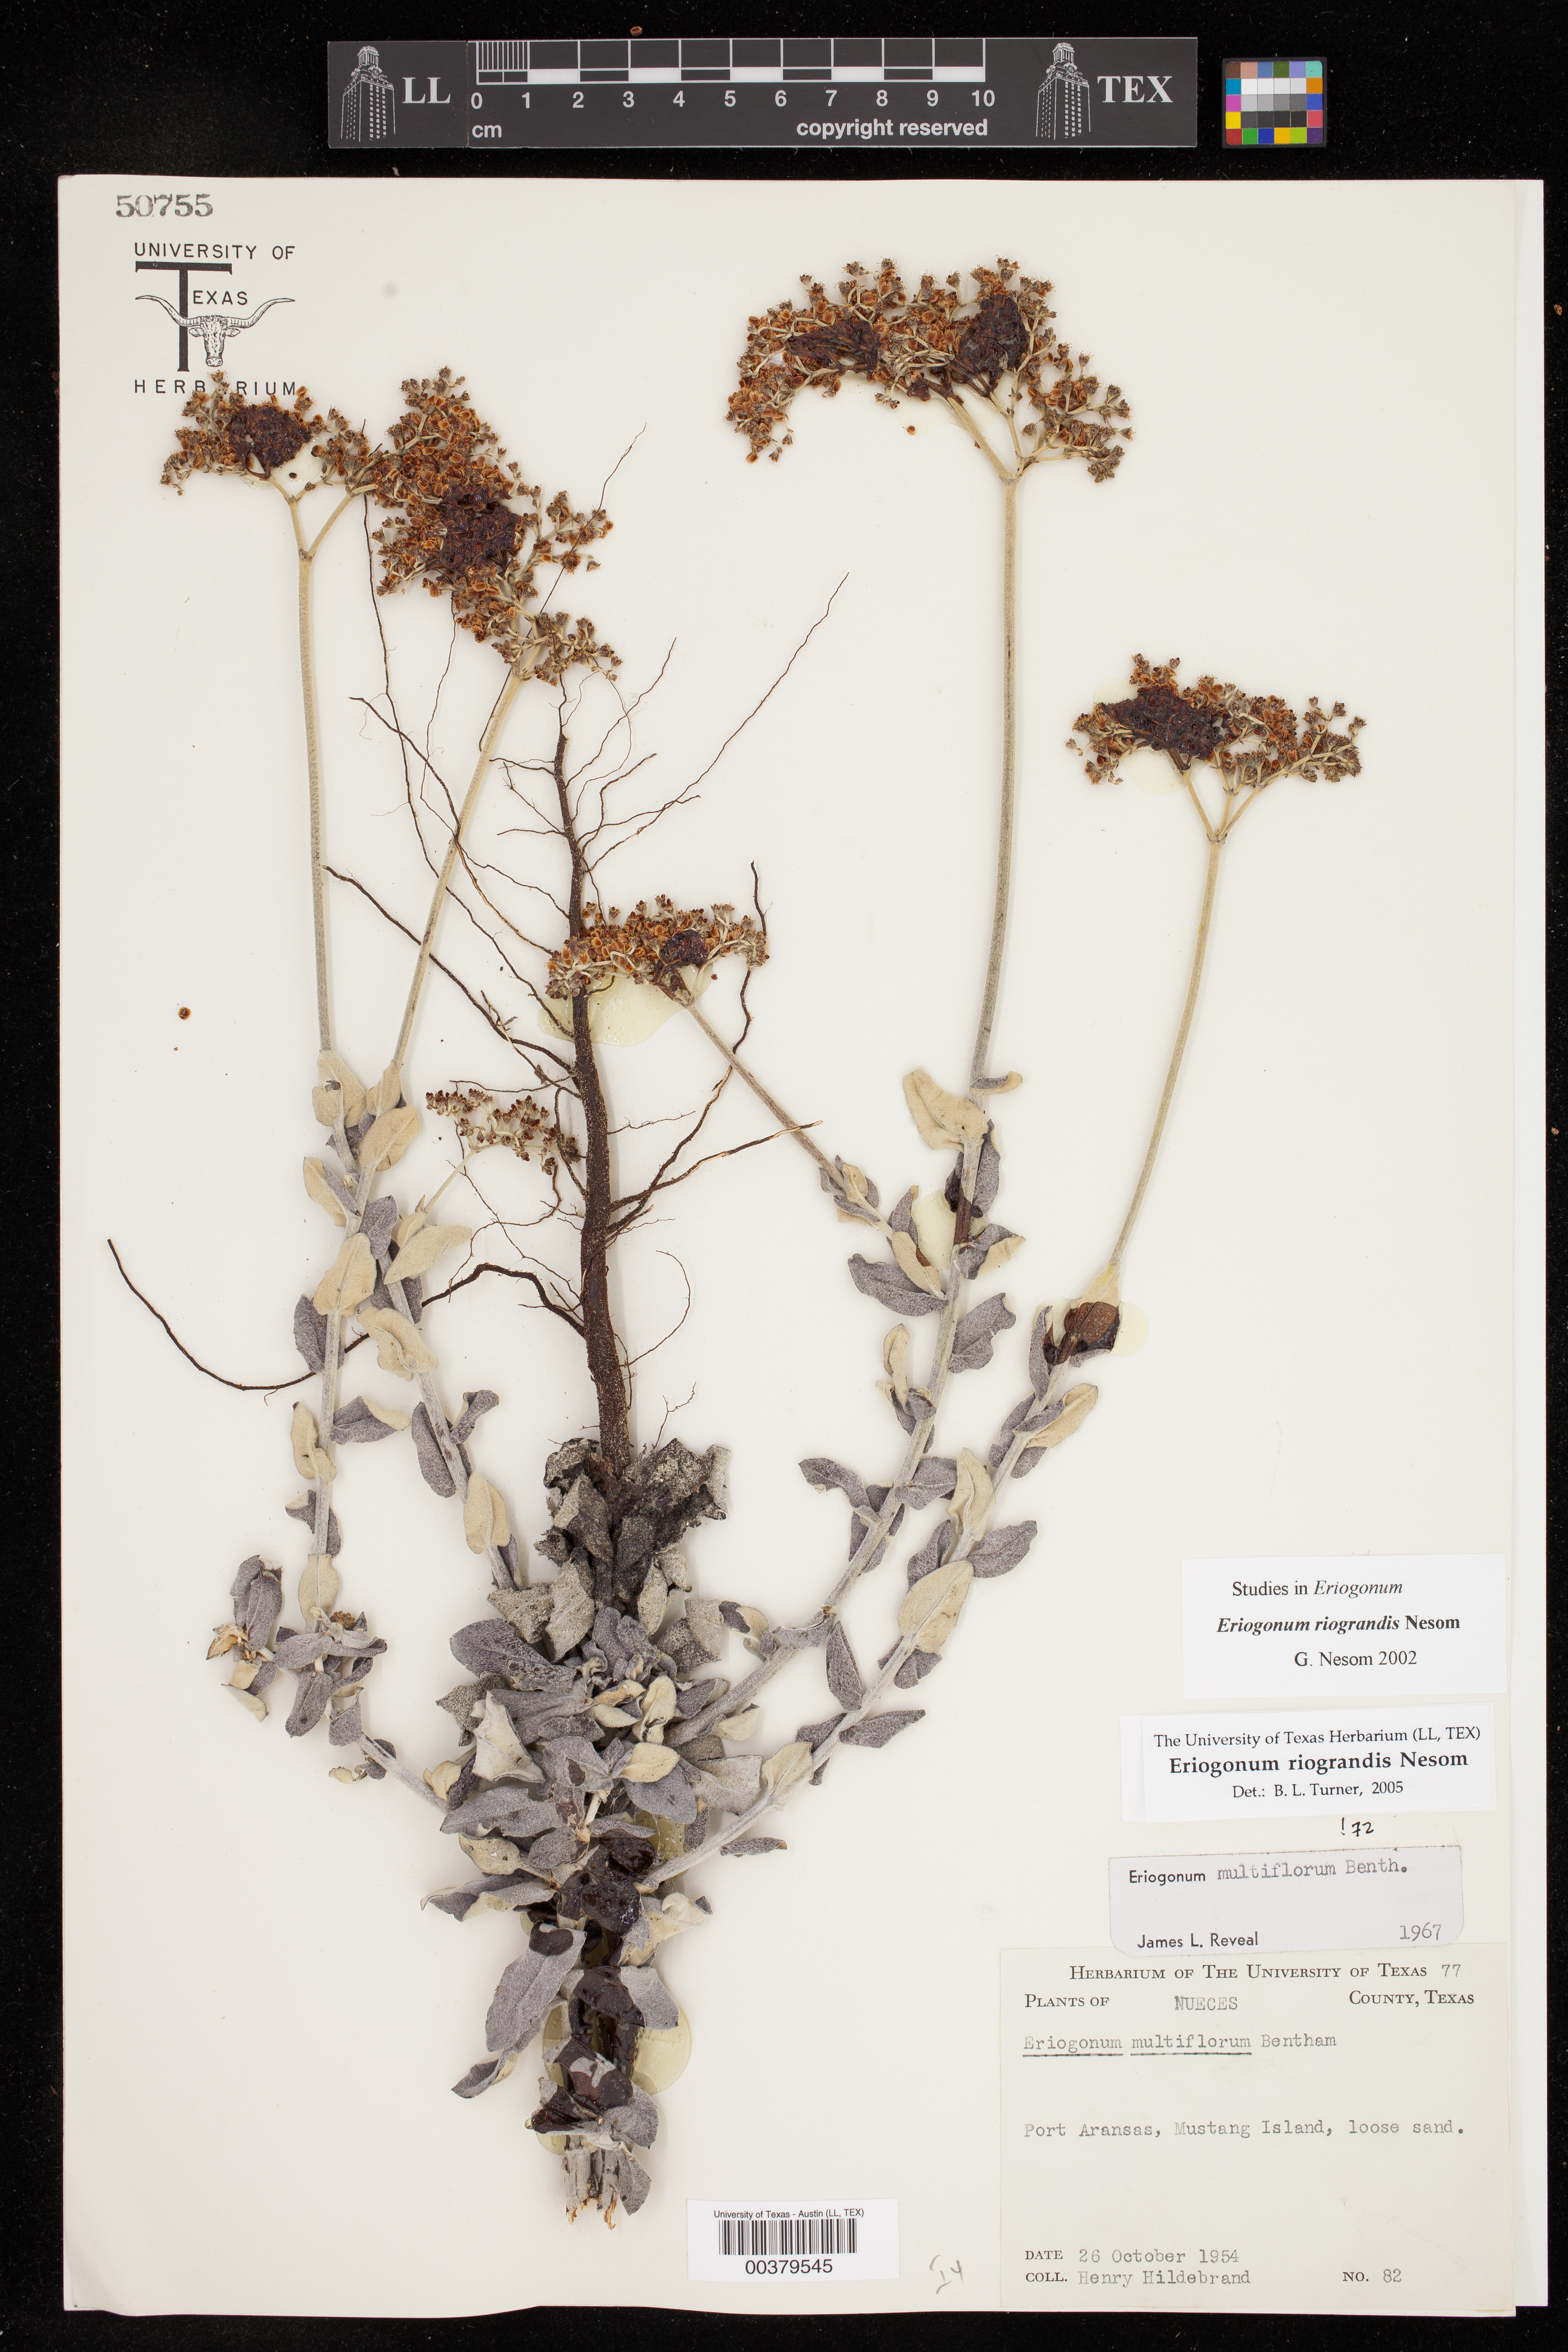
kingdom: Plantae
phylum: Tracheophyta
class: Magnoliopsida
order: Caryophyllales
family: Polygonaceae
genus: Eriogonum
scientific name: Eriogonum multiflorum
